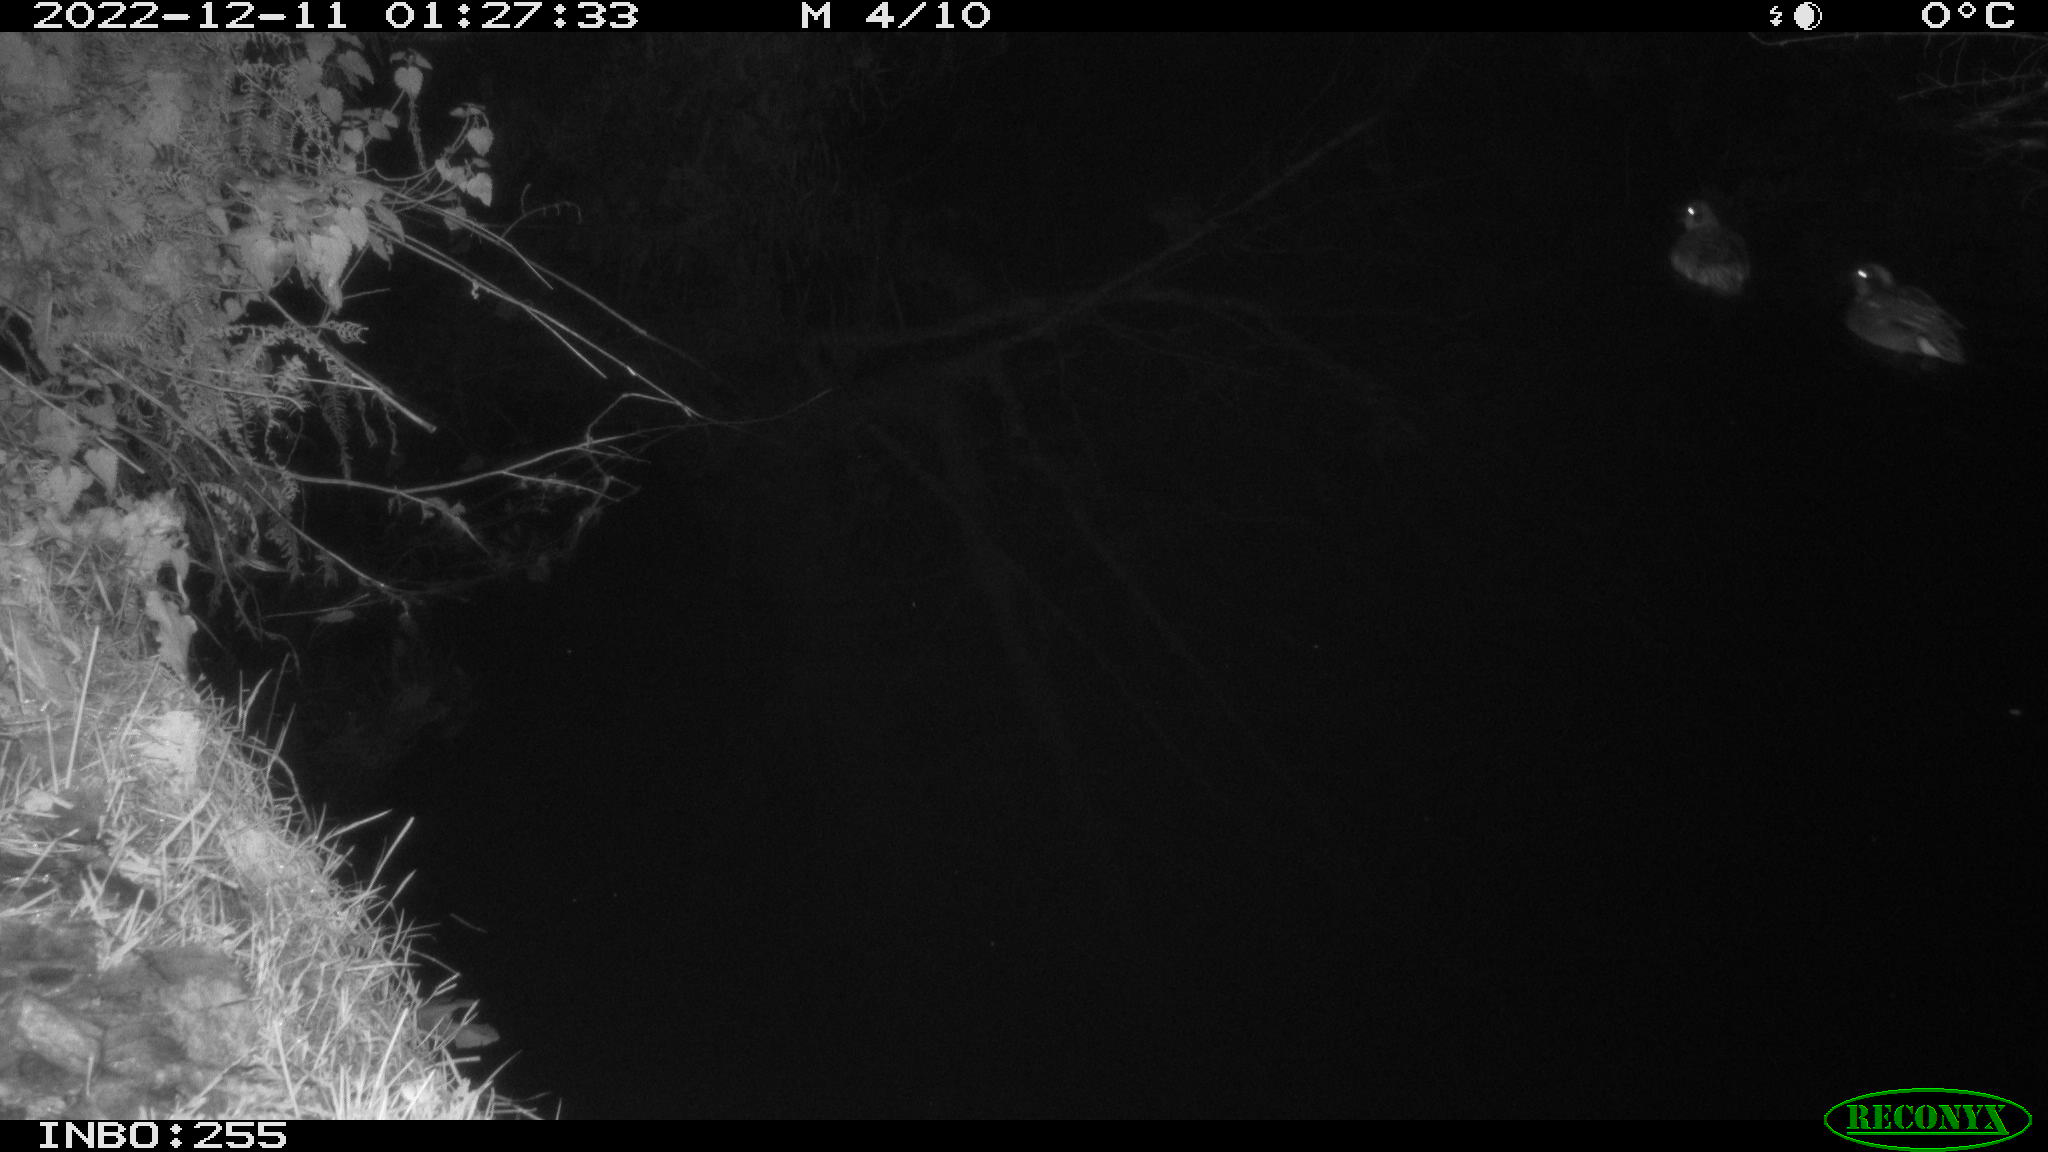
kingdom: Animalia
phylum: Chordata
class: Aves
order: Anseriformes
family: Anatidae
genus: Anas
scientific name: Anas crecca
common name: Eurasian teal
